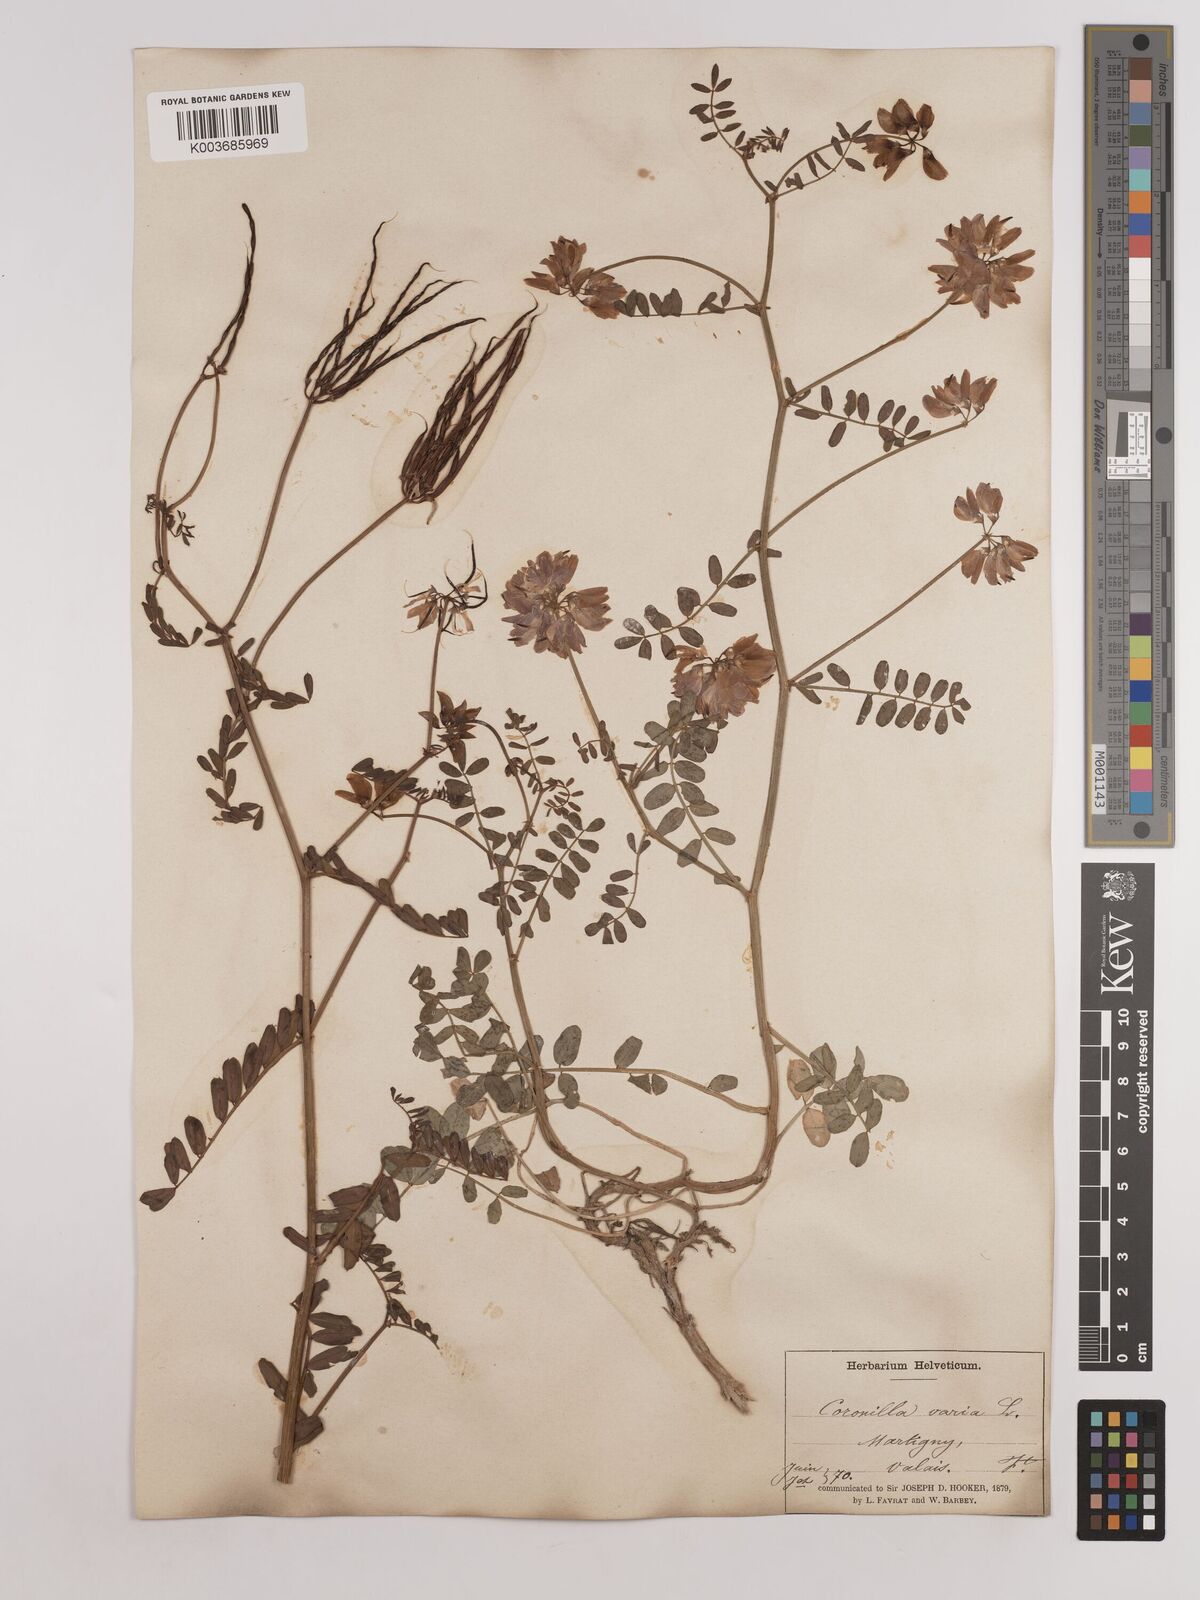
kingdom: Plantae
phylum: Tracheophyta
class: Magnoliopsida
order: Fabales
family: Fabaceae
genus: Coronilla
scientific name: Coronilla varia
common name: Crownvetch
